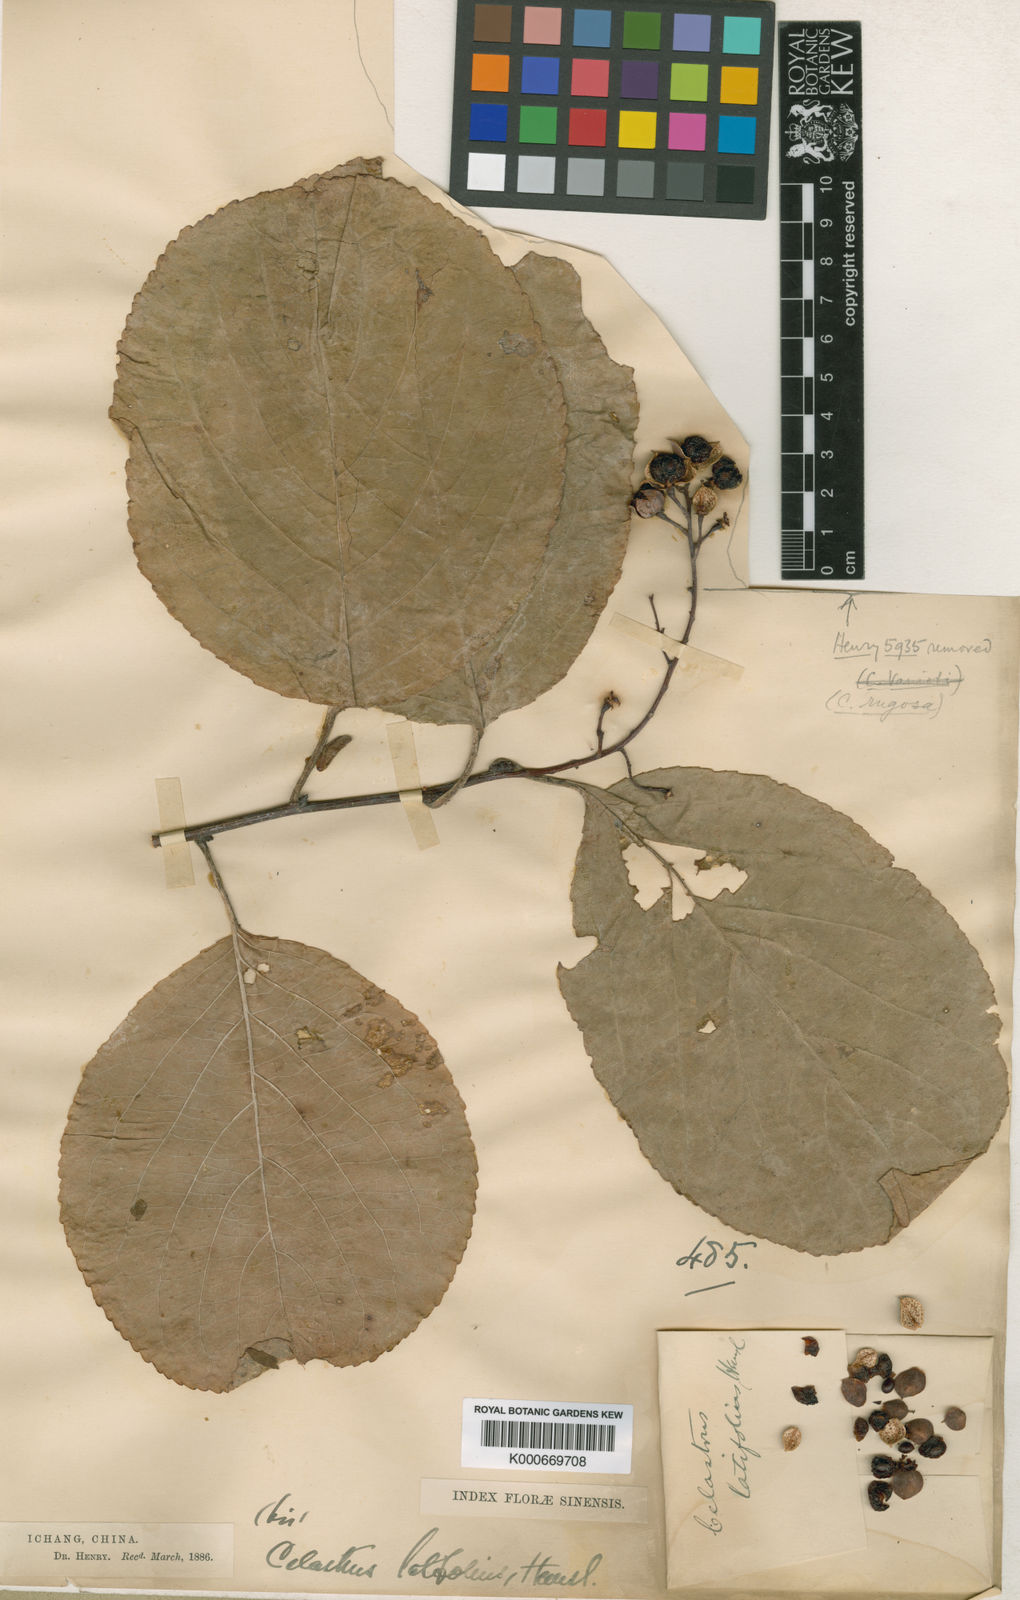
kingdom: Plantae
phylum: Tracheophyta
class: Magnoliopsida
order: Celastrales
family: Celastraceae
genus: Celastrus
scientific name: Celastrus angulatus
